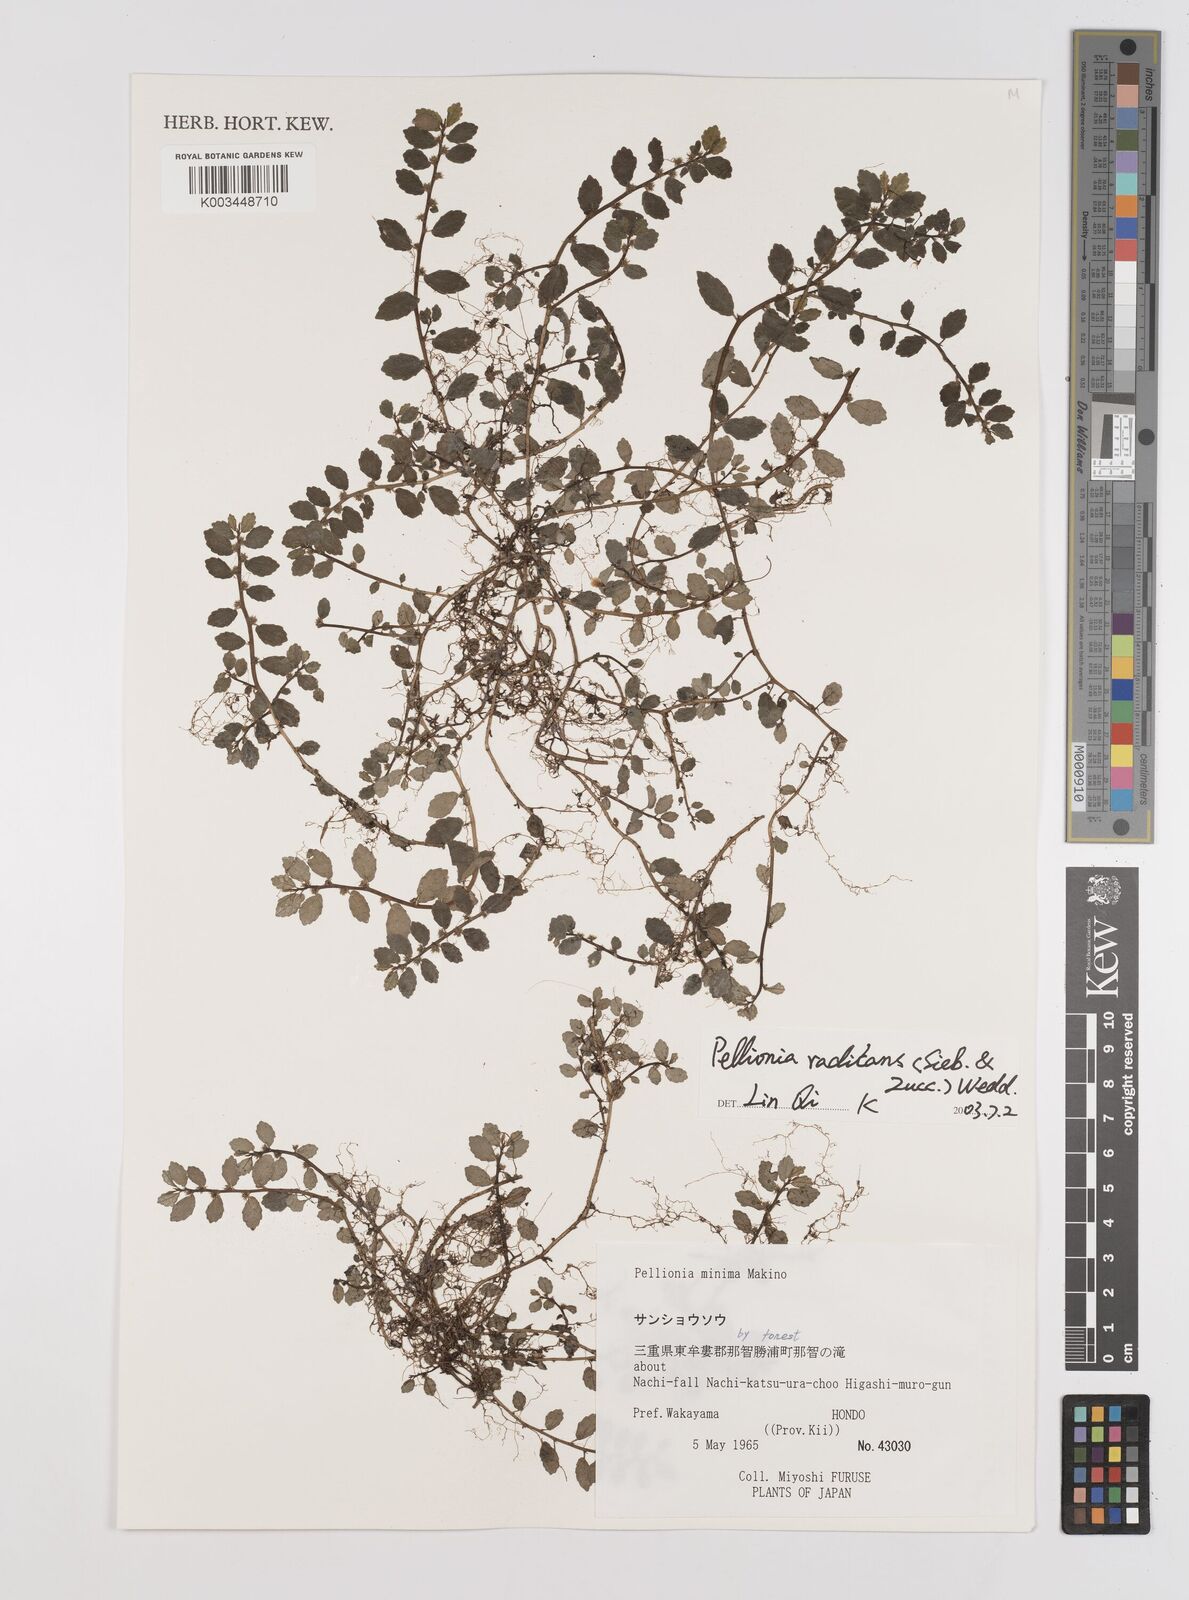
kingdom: Plantae
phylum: Tracheophyta
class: Magnoliopsida
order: Rosales
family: Urticaceae
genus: Elatostema
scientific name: Elatostema radicans
